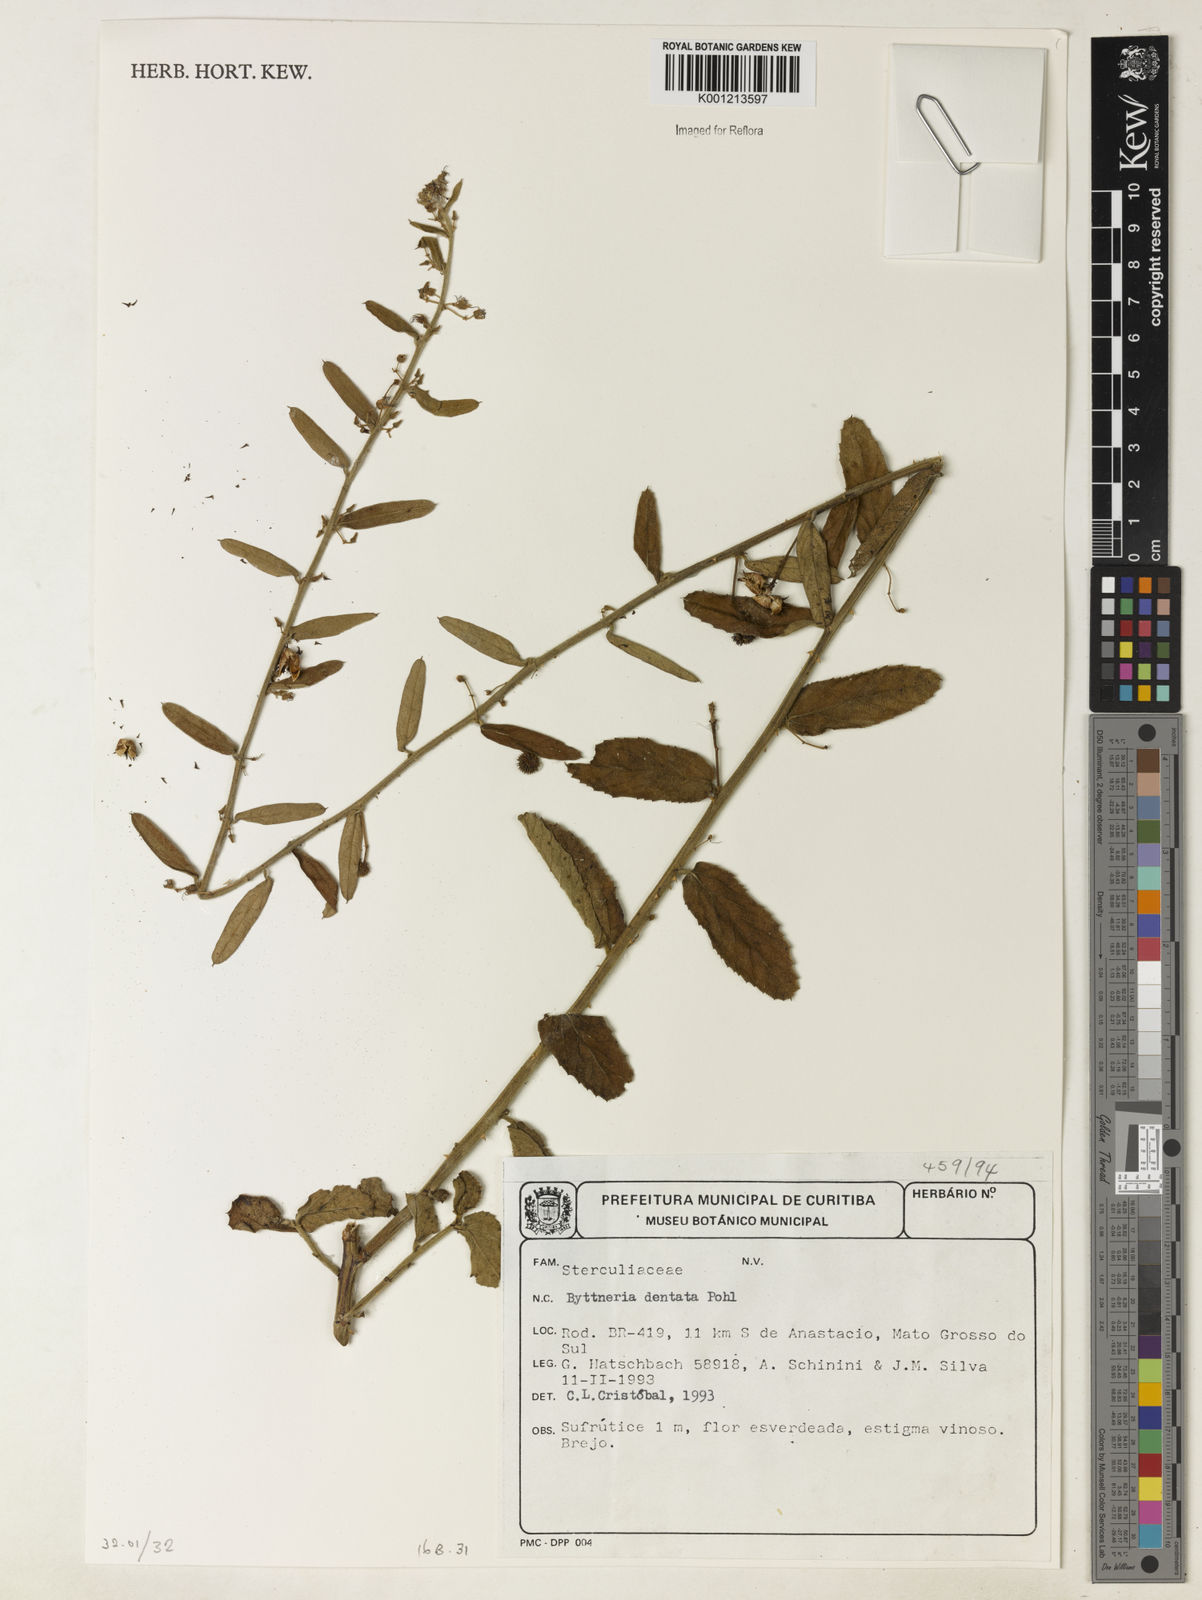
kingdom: Plantae
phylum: Tracheophyta
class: Magnoliopsida
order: Malvales
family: Malvaceae
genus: Byttneria
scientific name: Byttneria dentata
